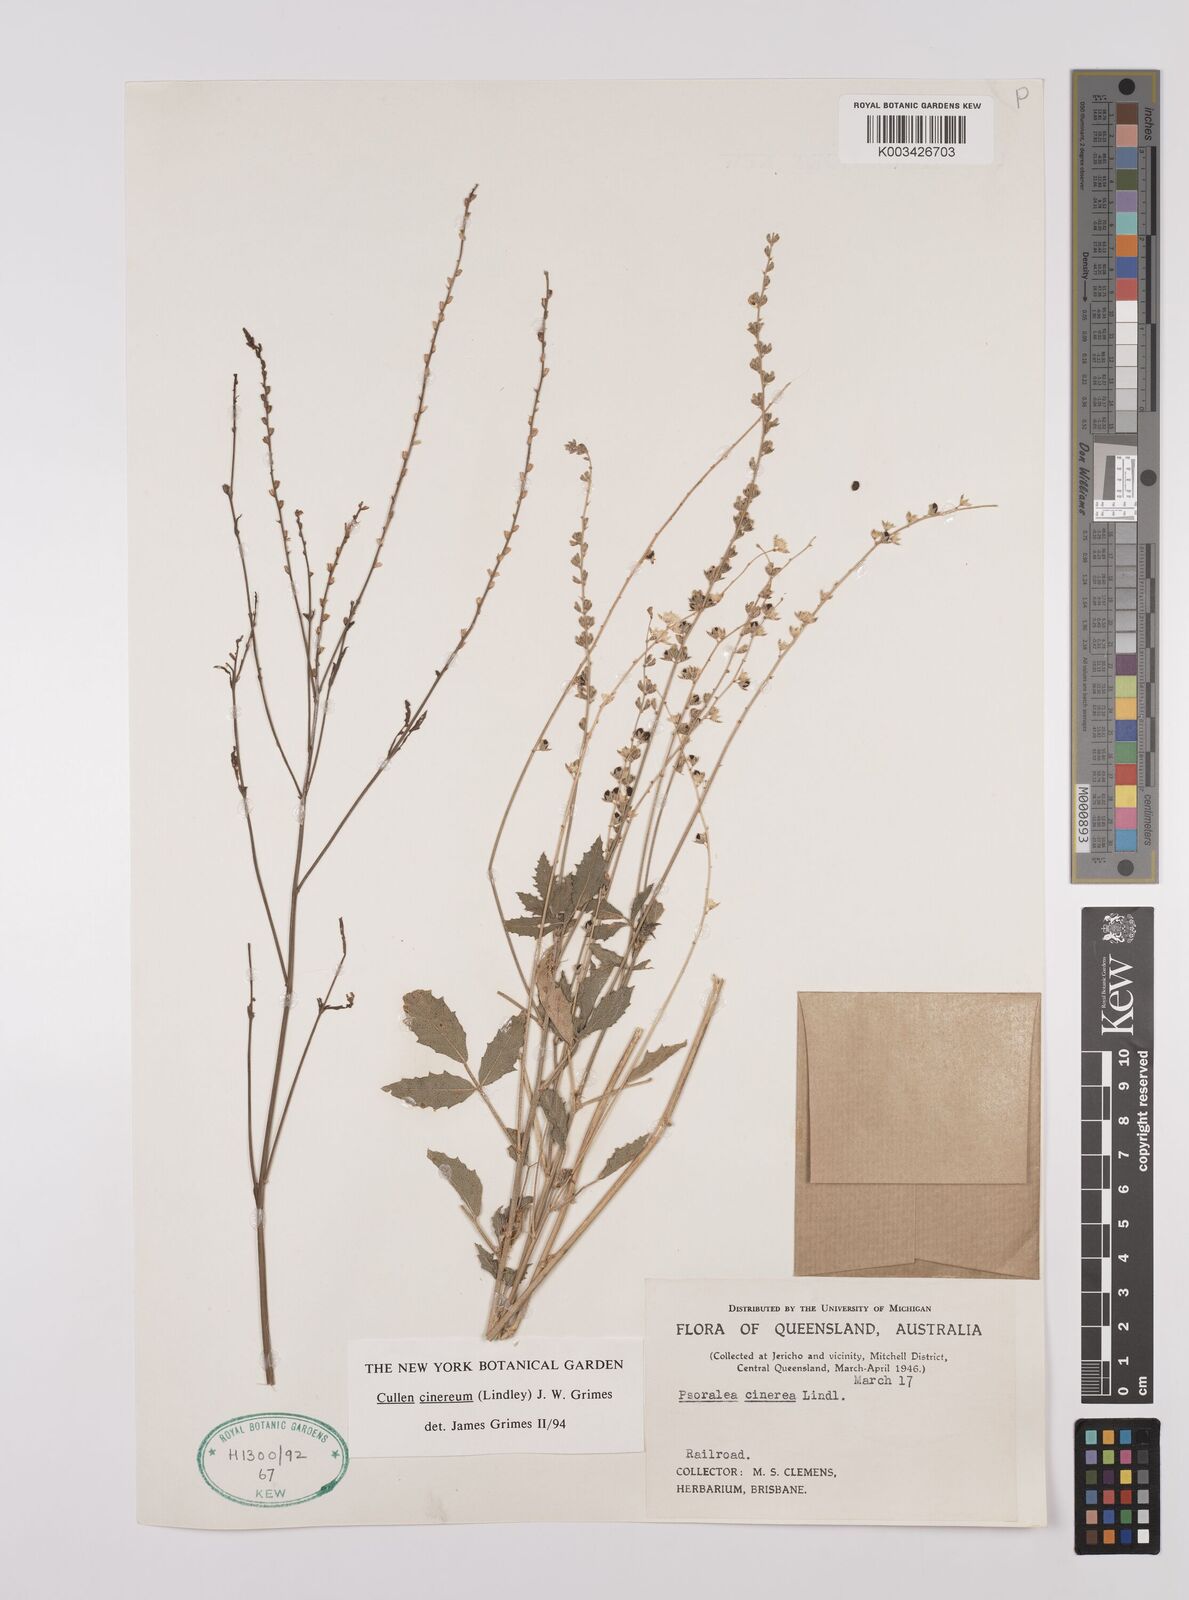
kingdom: Plantae
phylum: Tracheophyta
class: Magnoliopsida
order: Fabales
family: Fabaceae
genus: Cullen
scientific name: Cullen cinereum
